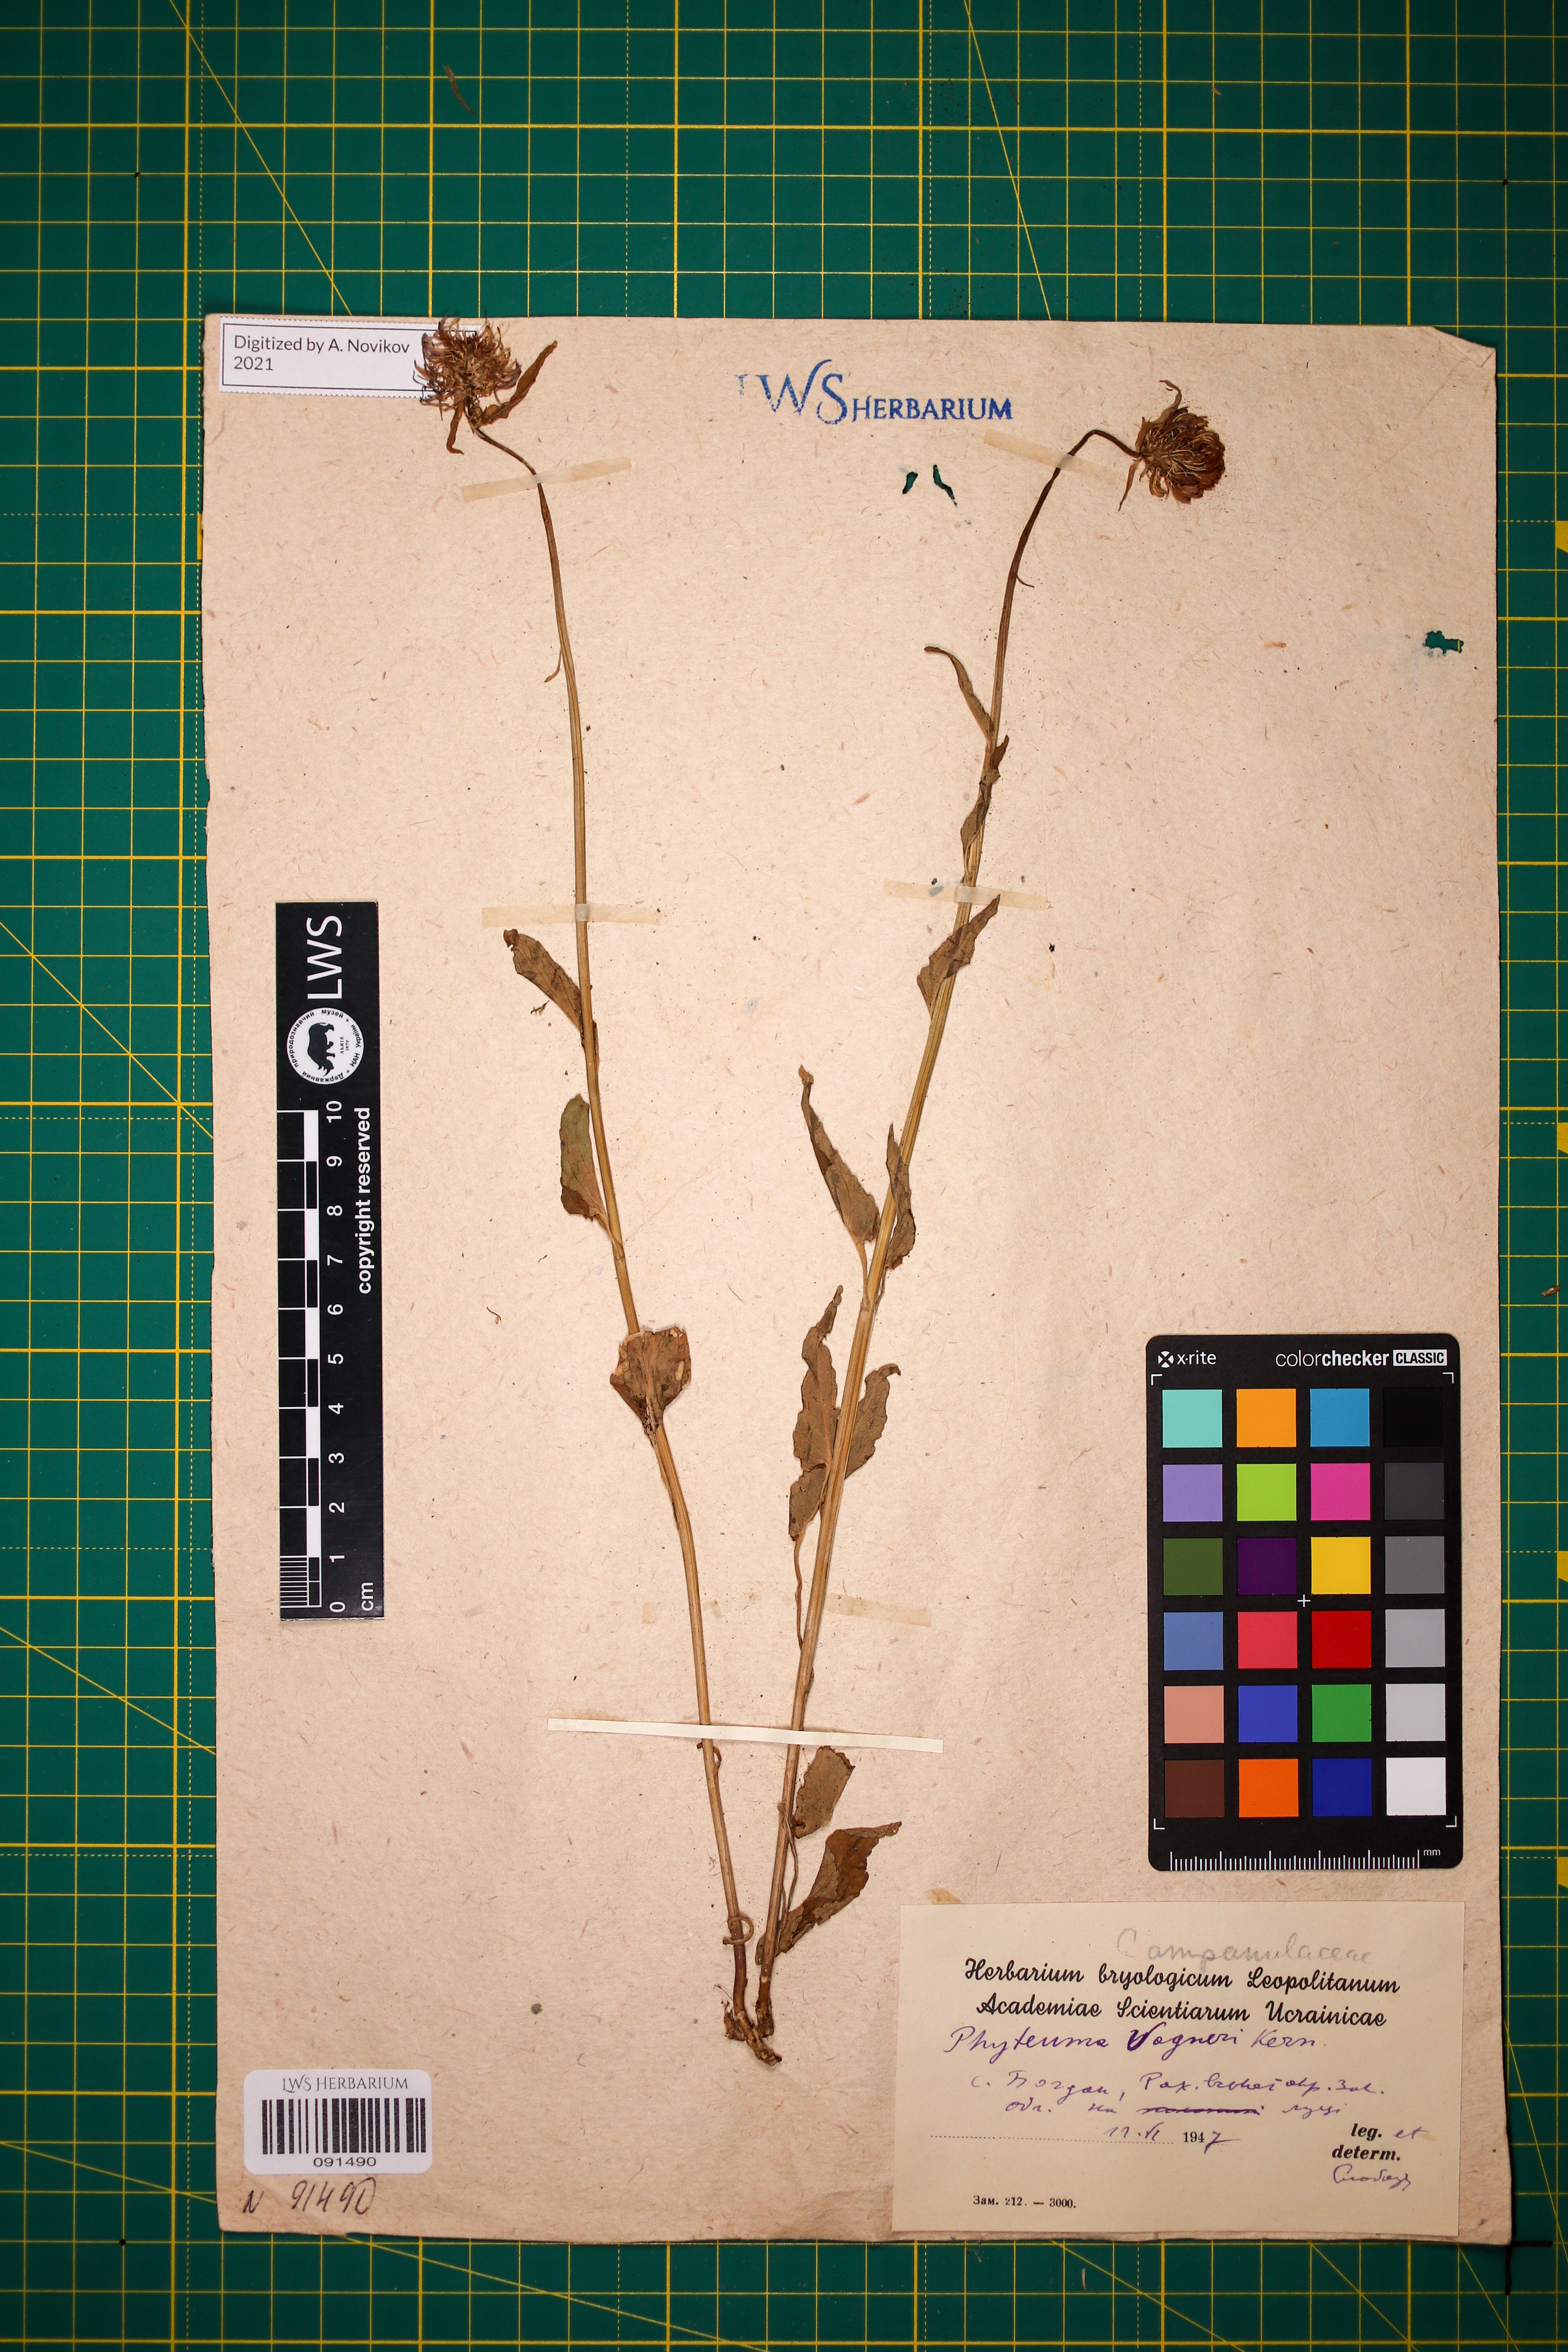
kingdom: Plantae
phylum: Tracheophyta
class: Magnoliopsida
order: Asterales
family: Campanulaceae
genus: Phyteuma
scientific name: Phyteuma vagneri
